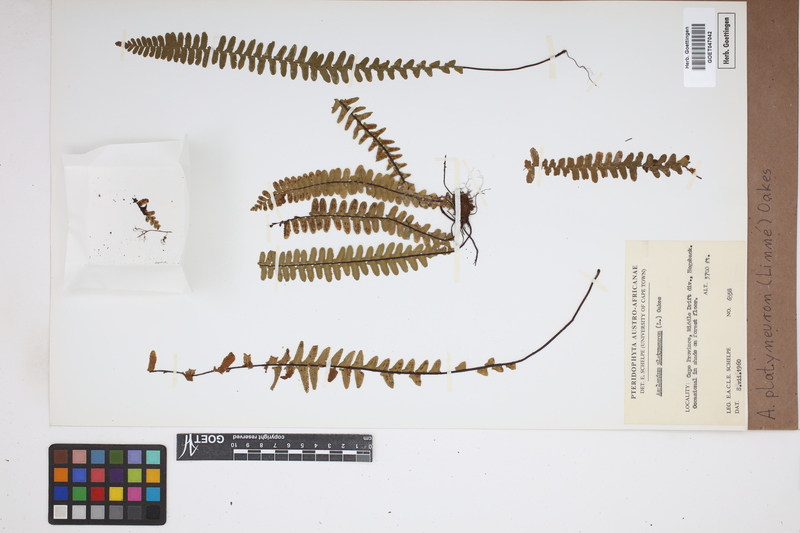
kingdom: Plantae
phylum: Tracheophyta
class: Polypodiopsida
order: Polypodiales
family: Aspleniaceae
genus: Asplenium
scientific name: Asplenium platyneuron
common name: Ebony spleenwort
